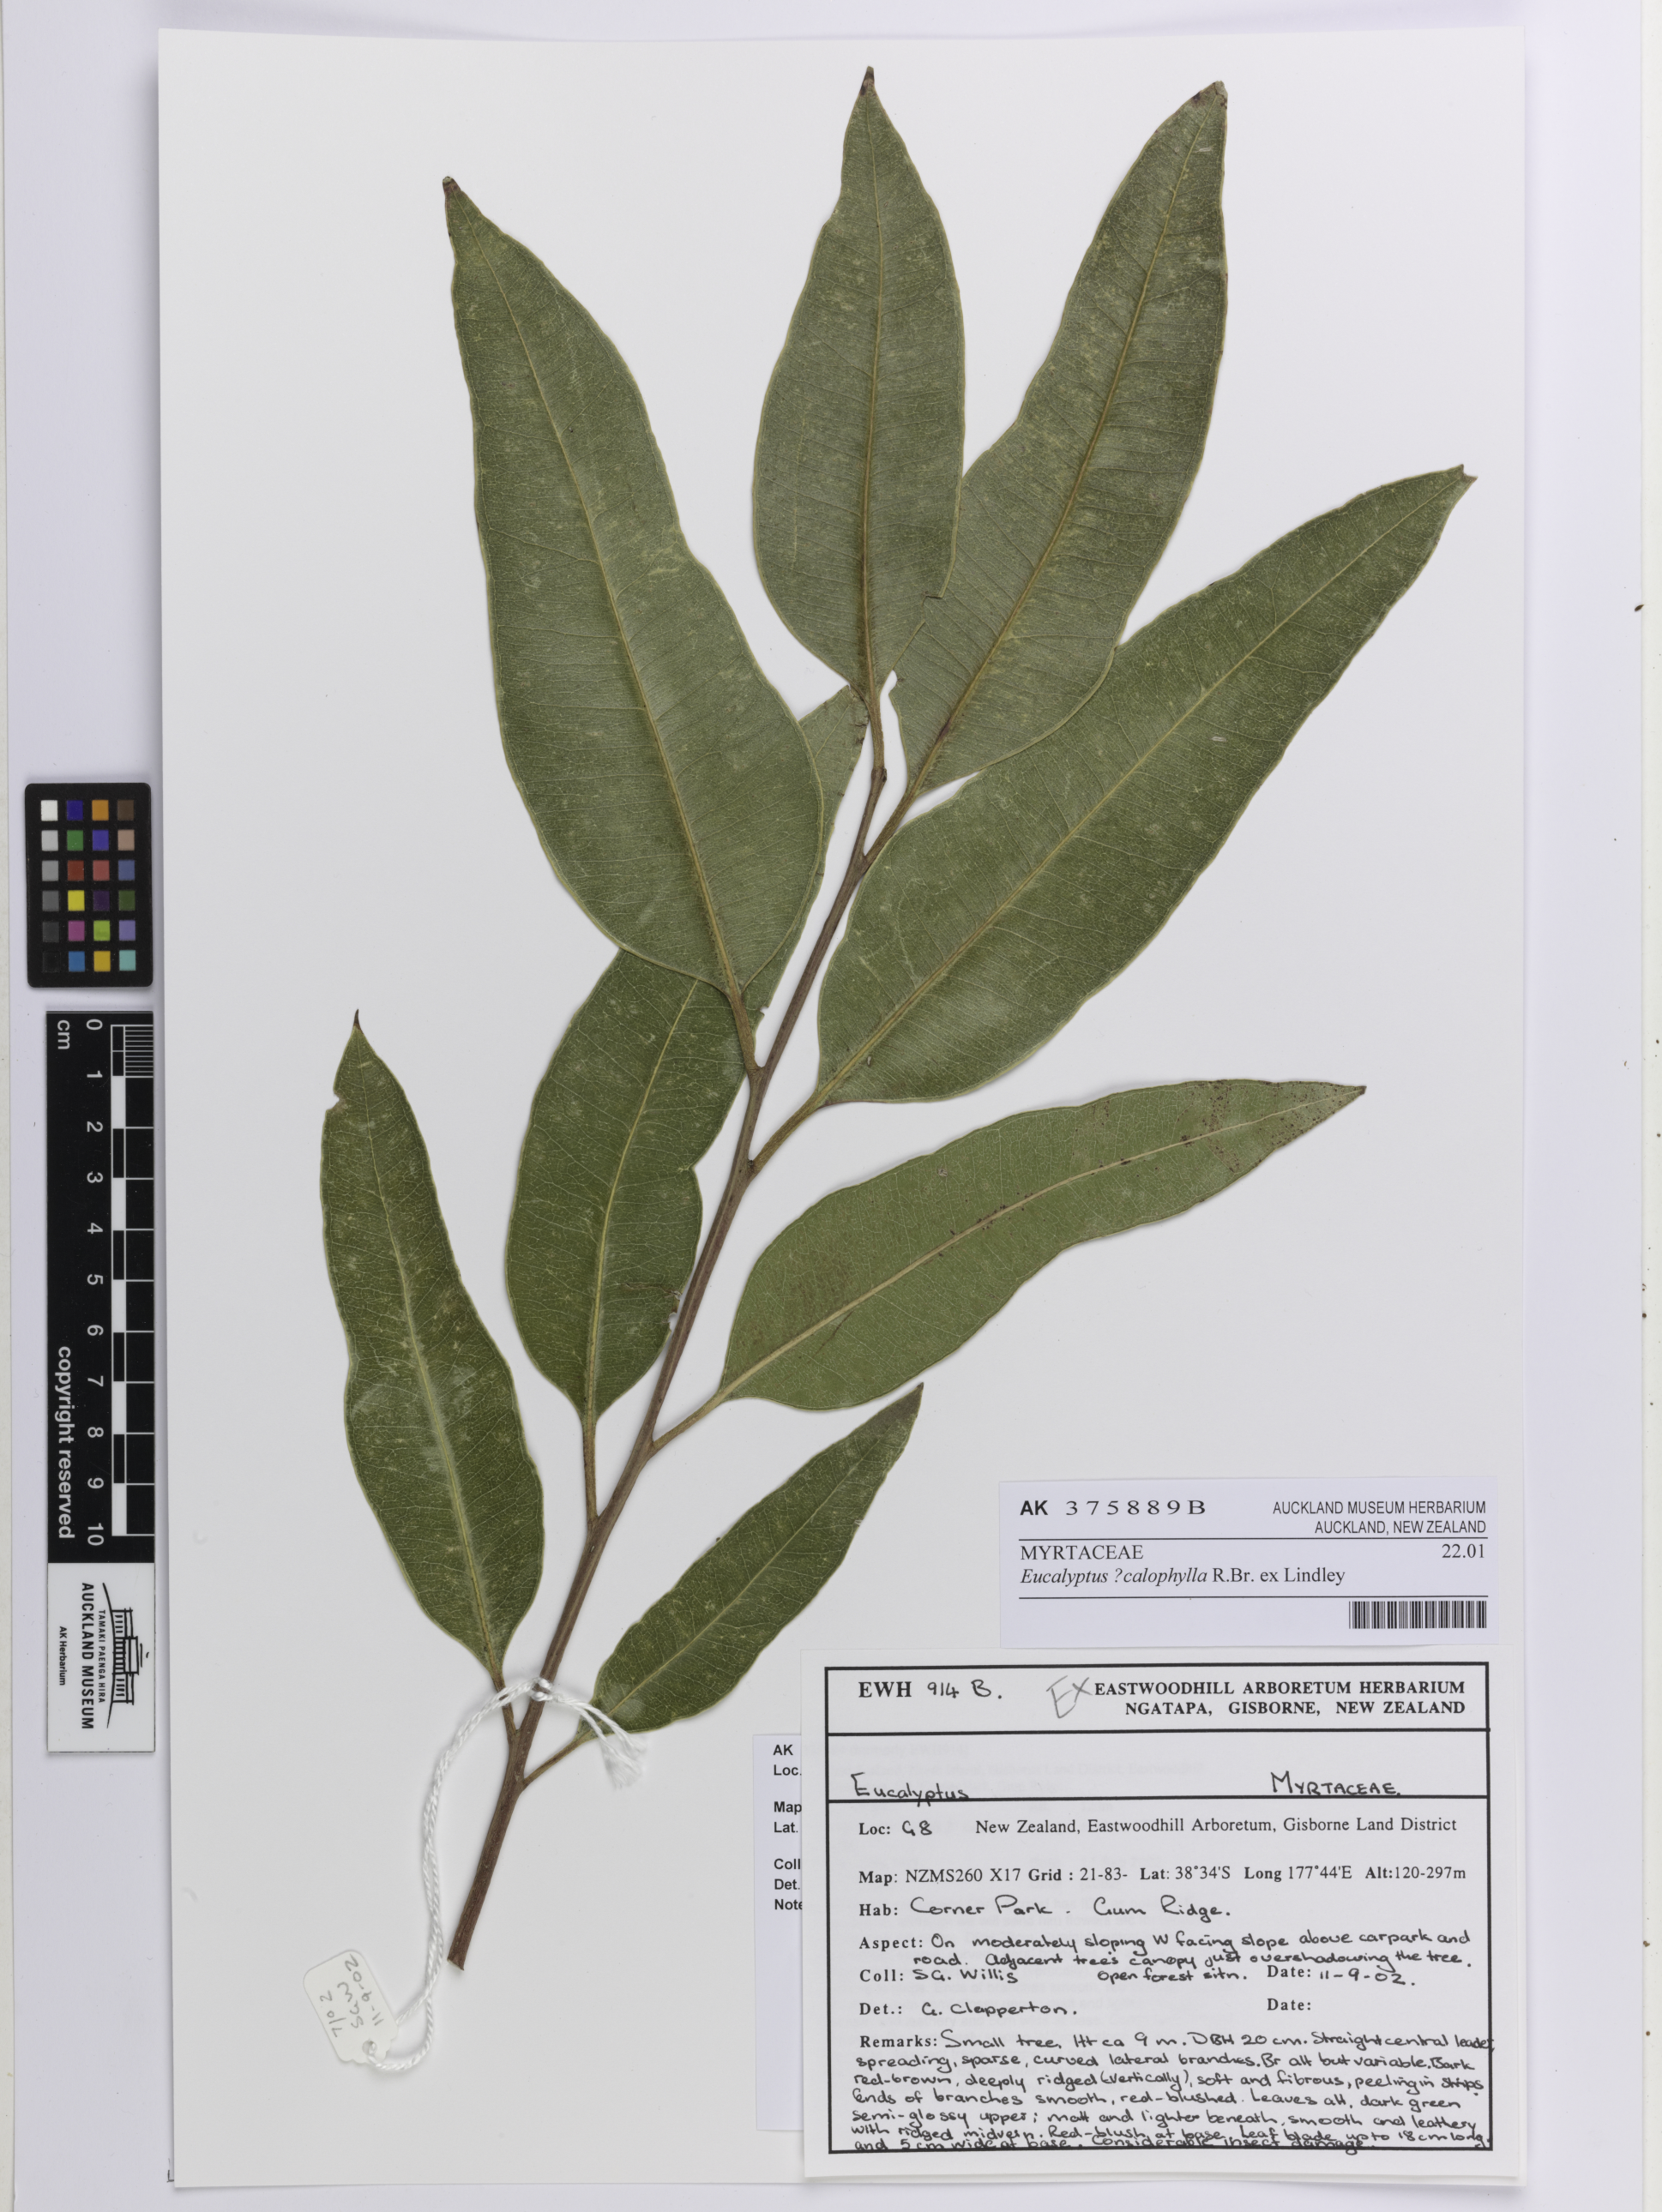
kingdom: Plantae
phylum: Tracheophyta
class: Magnoliopsida
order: Myrtales
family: Myrtaceae
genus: Corymbia
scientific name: Corymbia calophylla
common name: Marri
